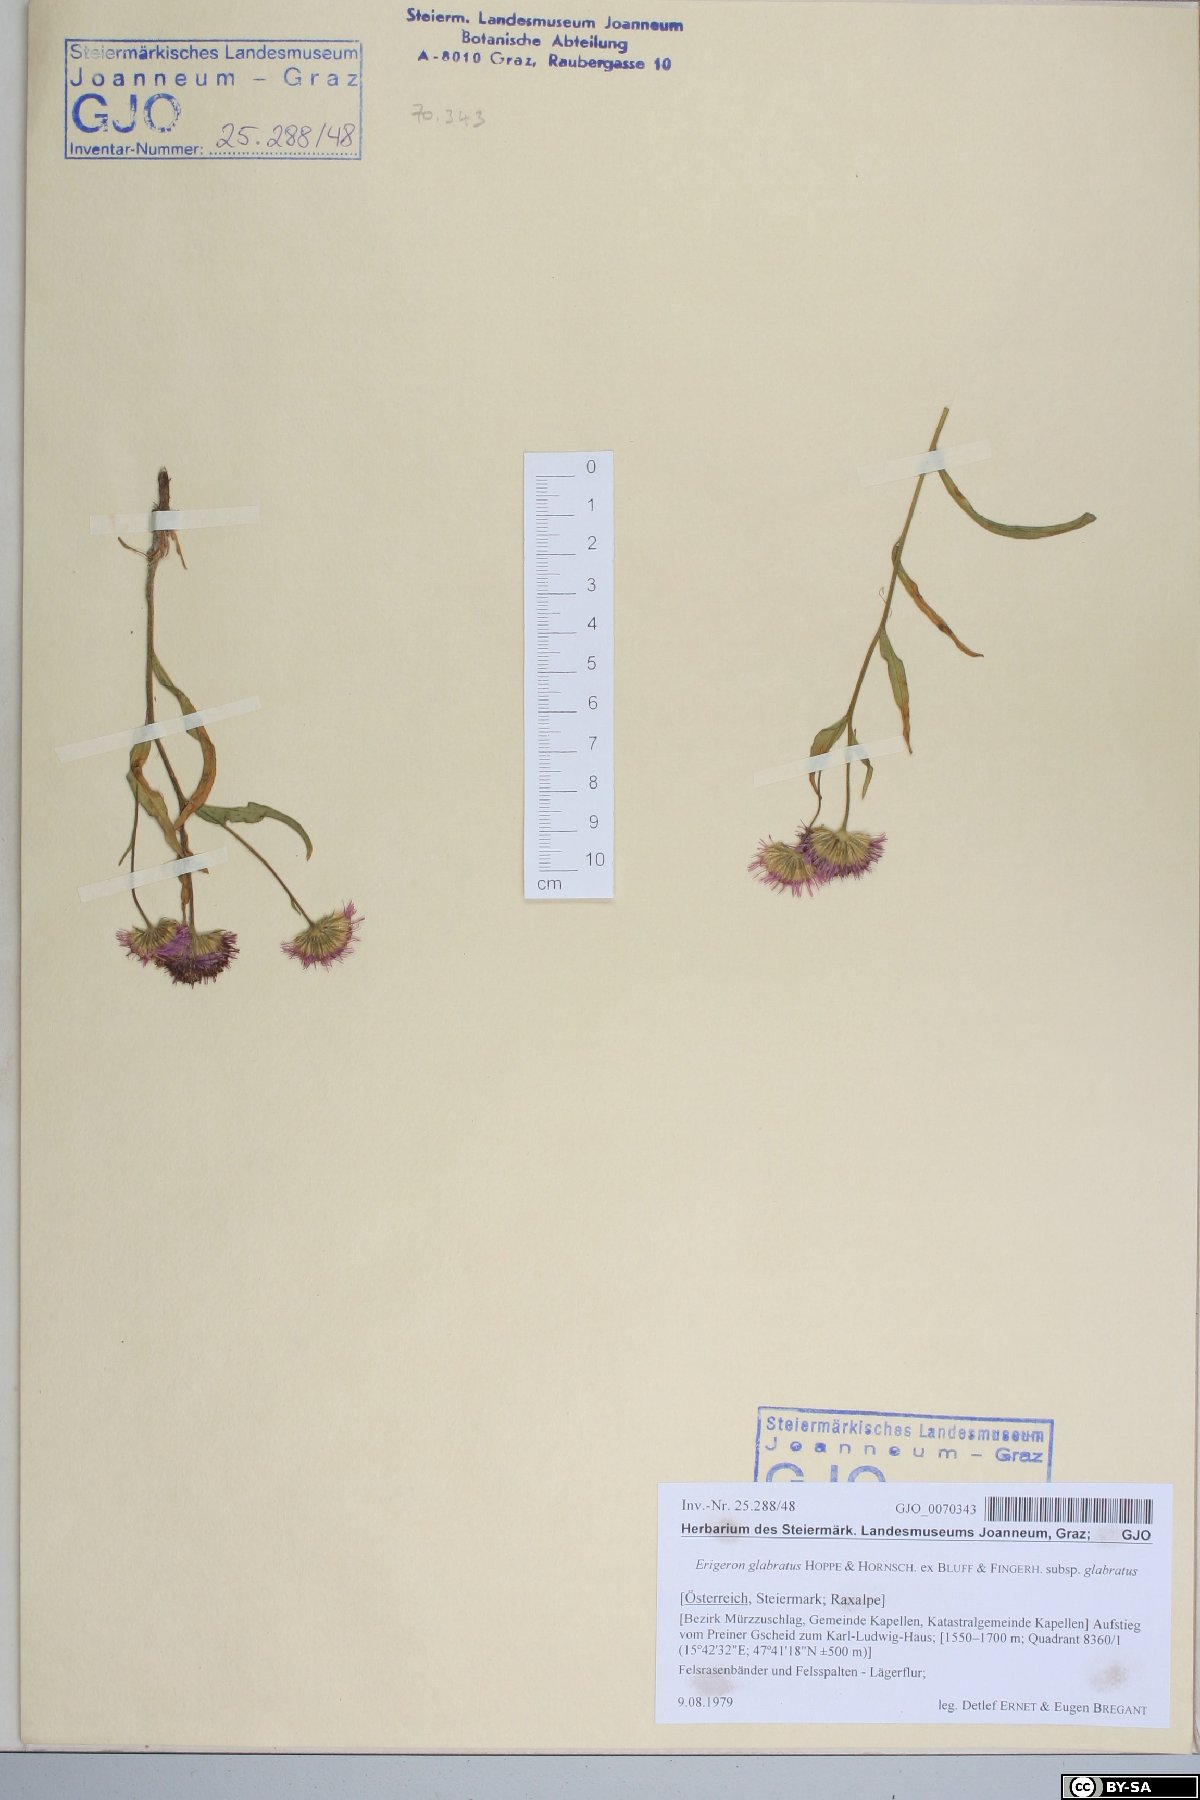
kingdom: Plantae
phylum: Tracheophyta
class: Magnoliopsida
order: Asterales
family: Asteraceae
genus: Erigeron
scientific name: Erigeron glabratus
